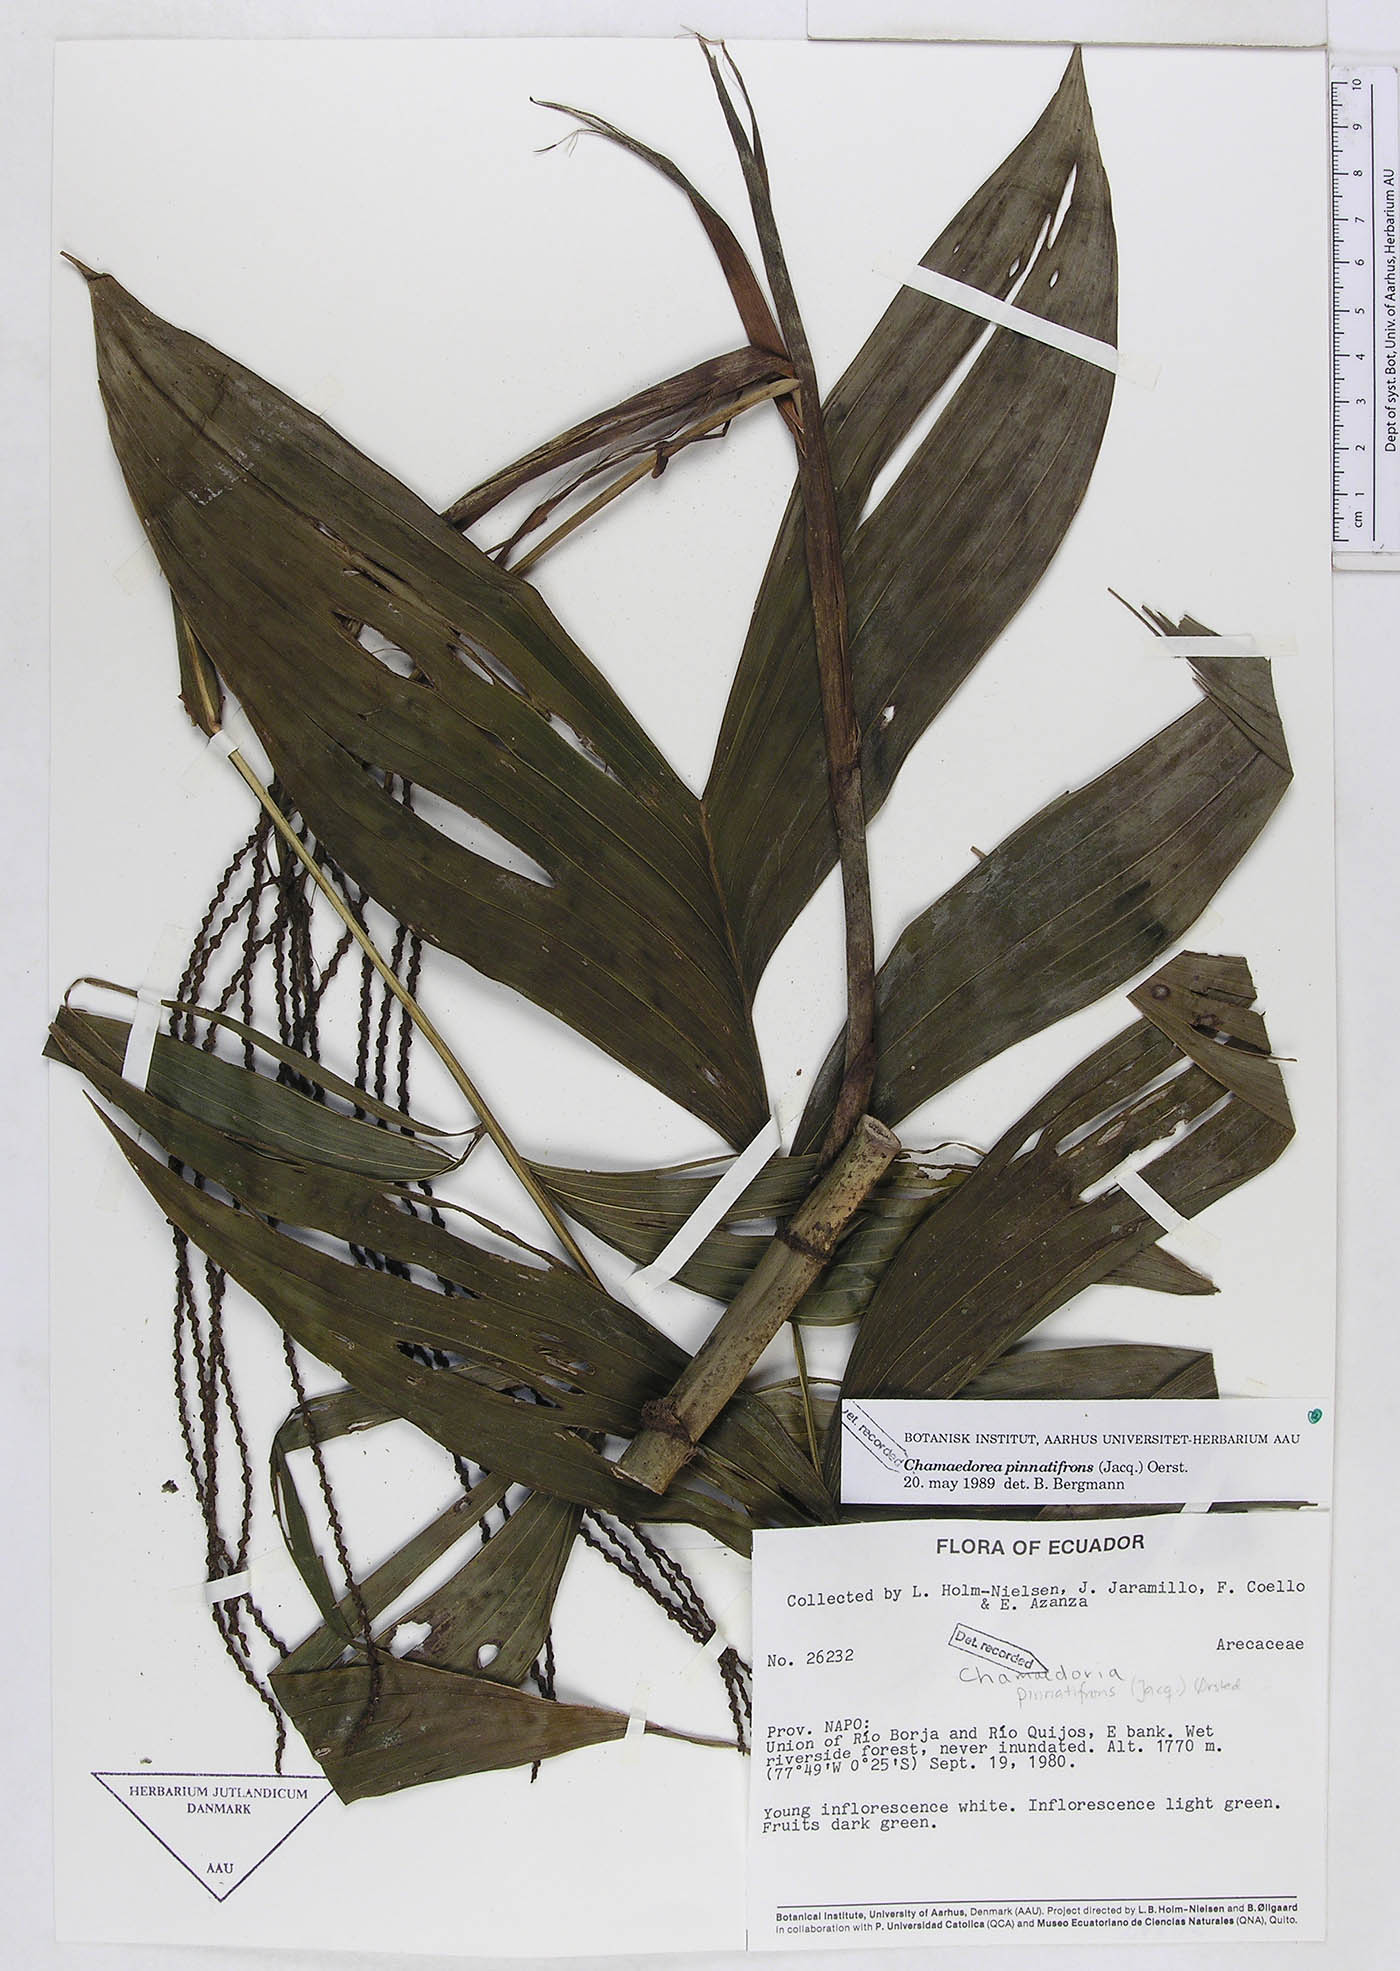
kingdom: Plantae
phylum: Tracheophyta
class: Liliopsida
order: Arecales
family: Arecaceae
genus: Chamaedorea
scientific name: Chamaedorea pinnatifrons
